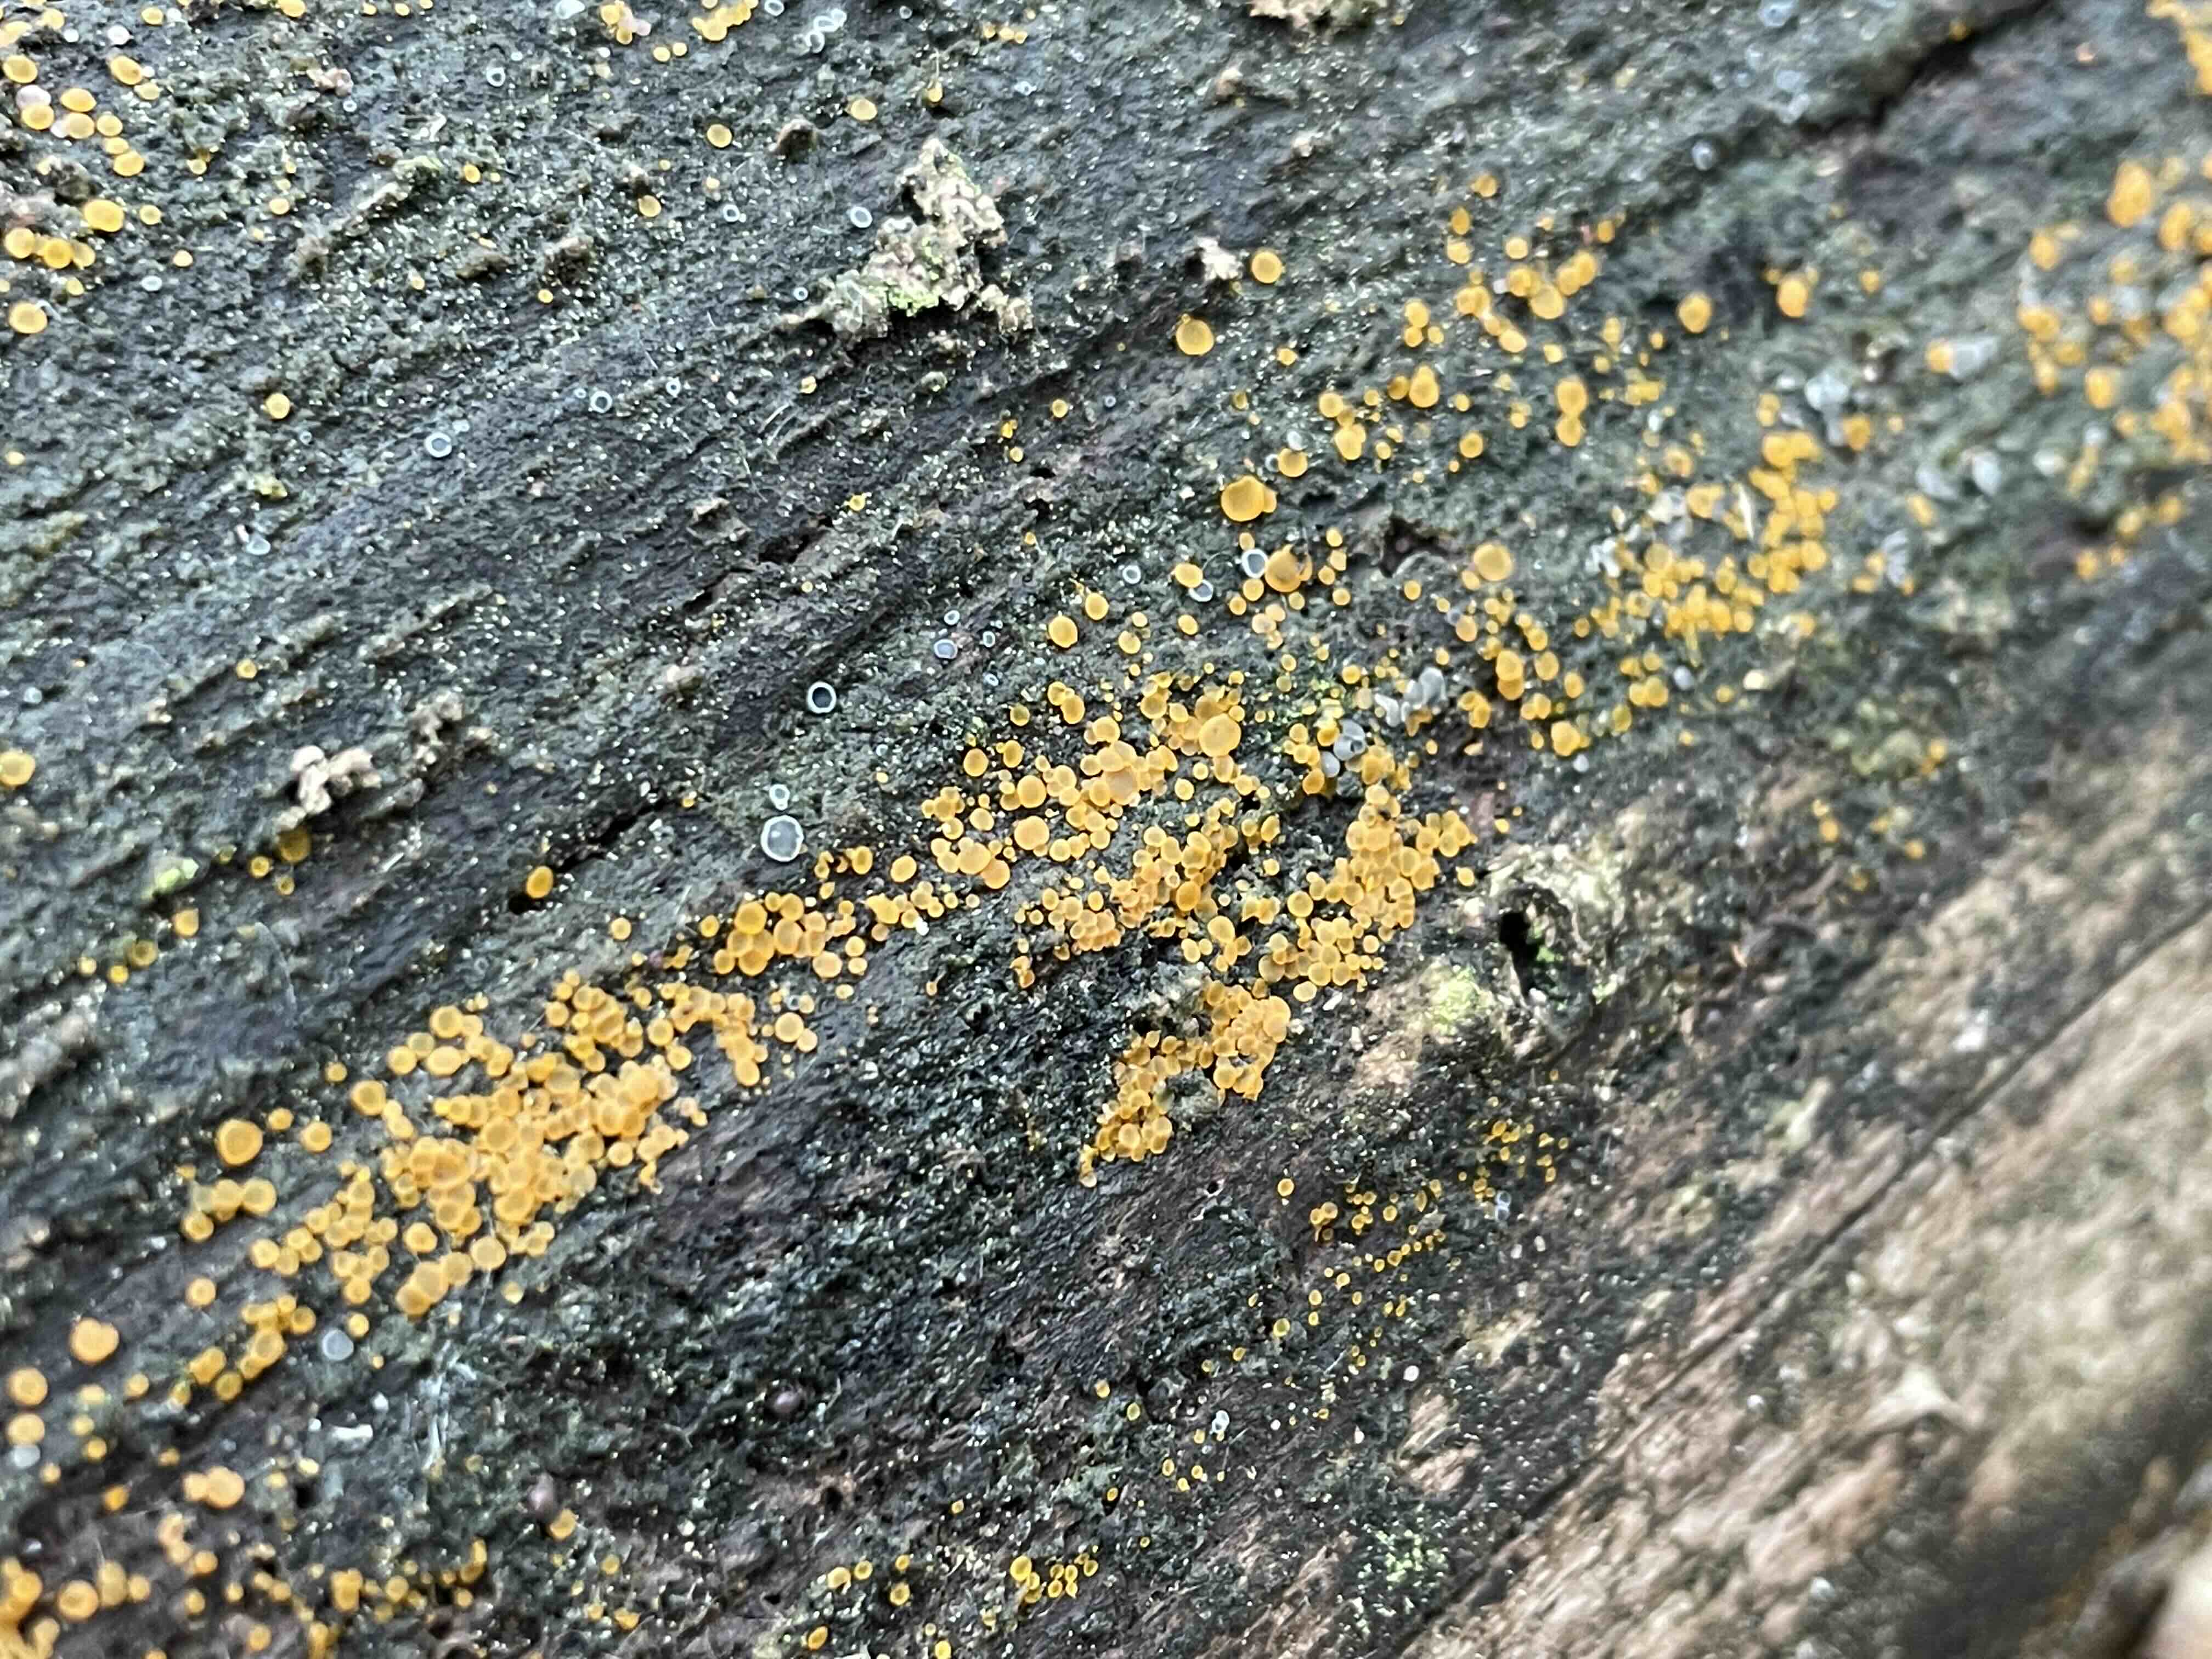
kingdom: Fungi
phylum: Ascomycota
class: Orbiliomycetes
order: Orbiliales
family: Orbiliaceae
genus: Orbilia
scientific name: Orbilia xanthostigma
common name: krumsporet voksskive
